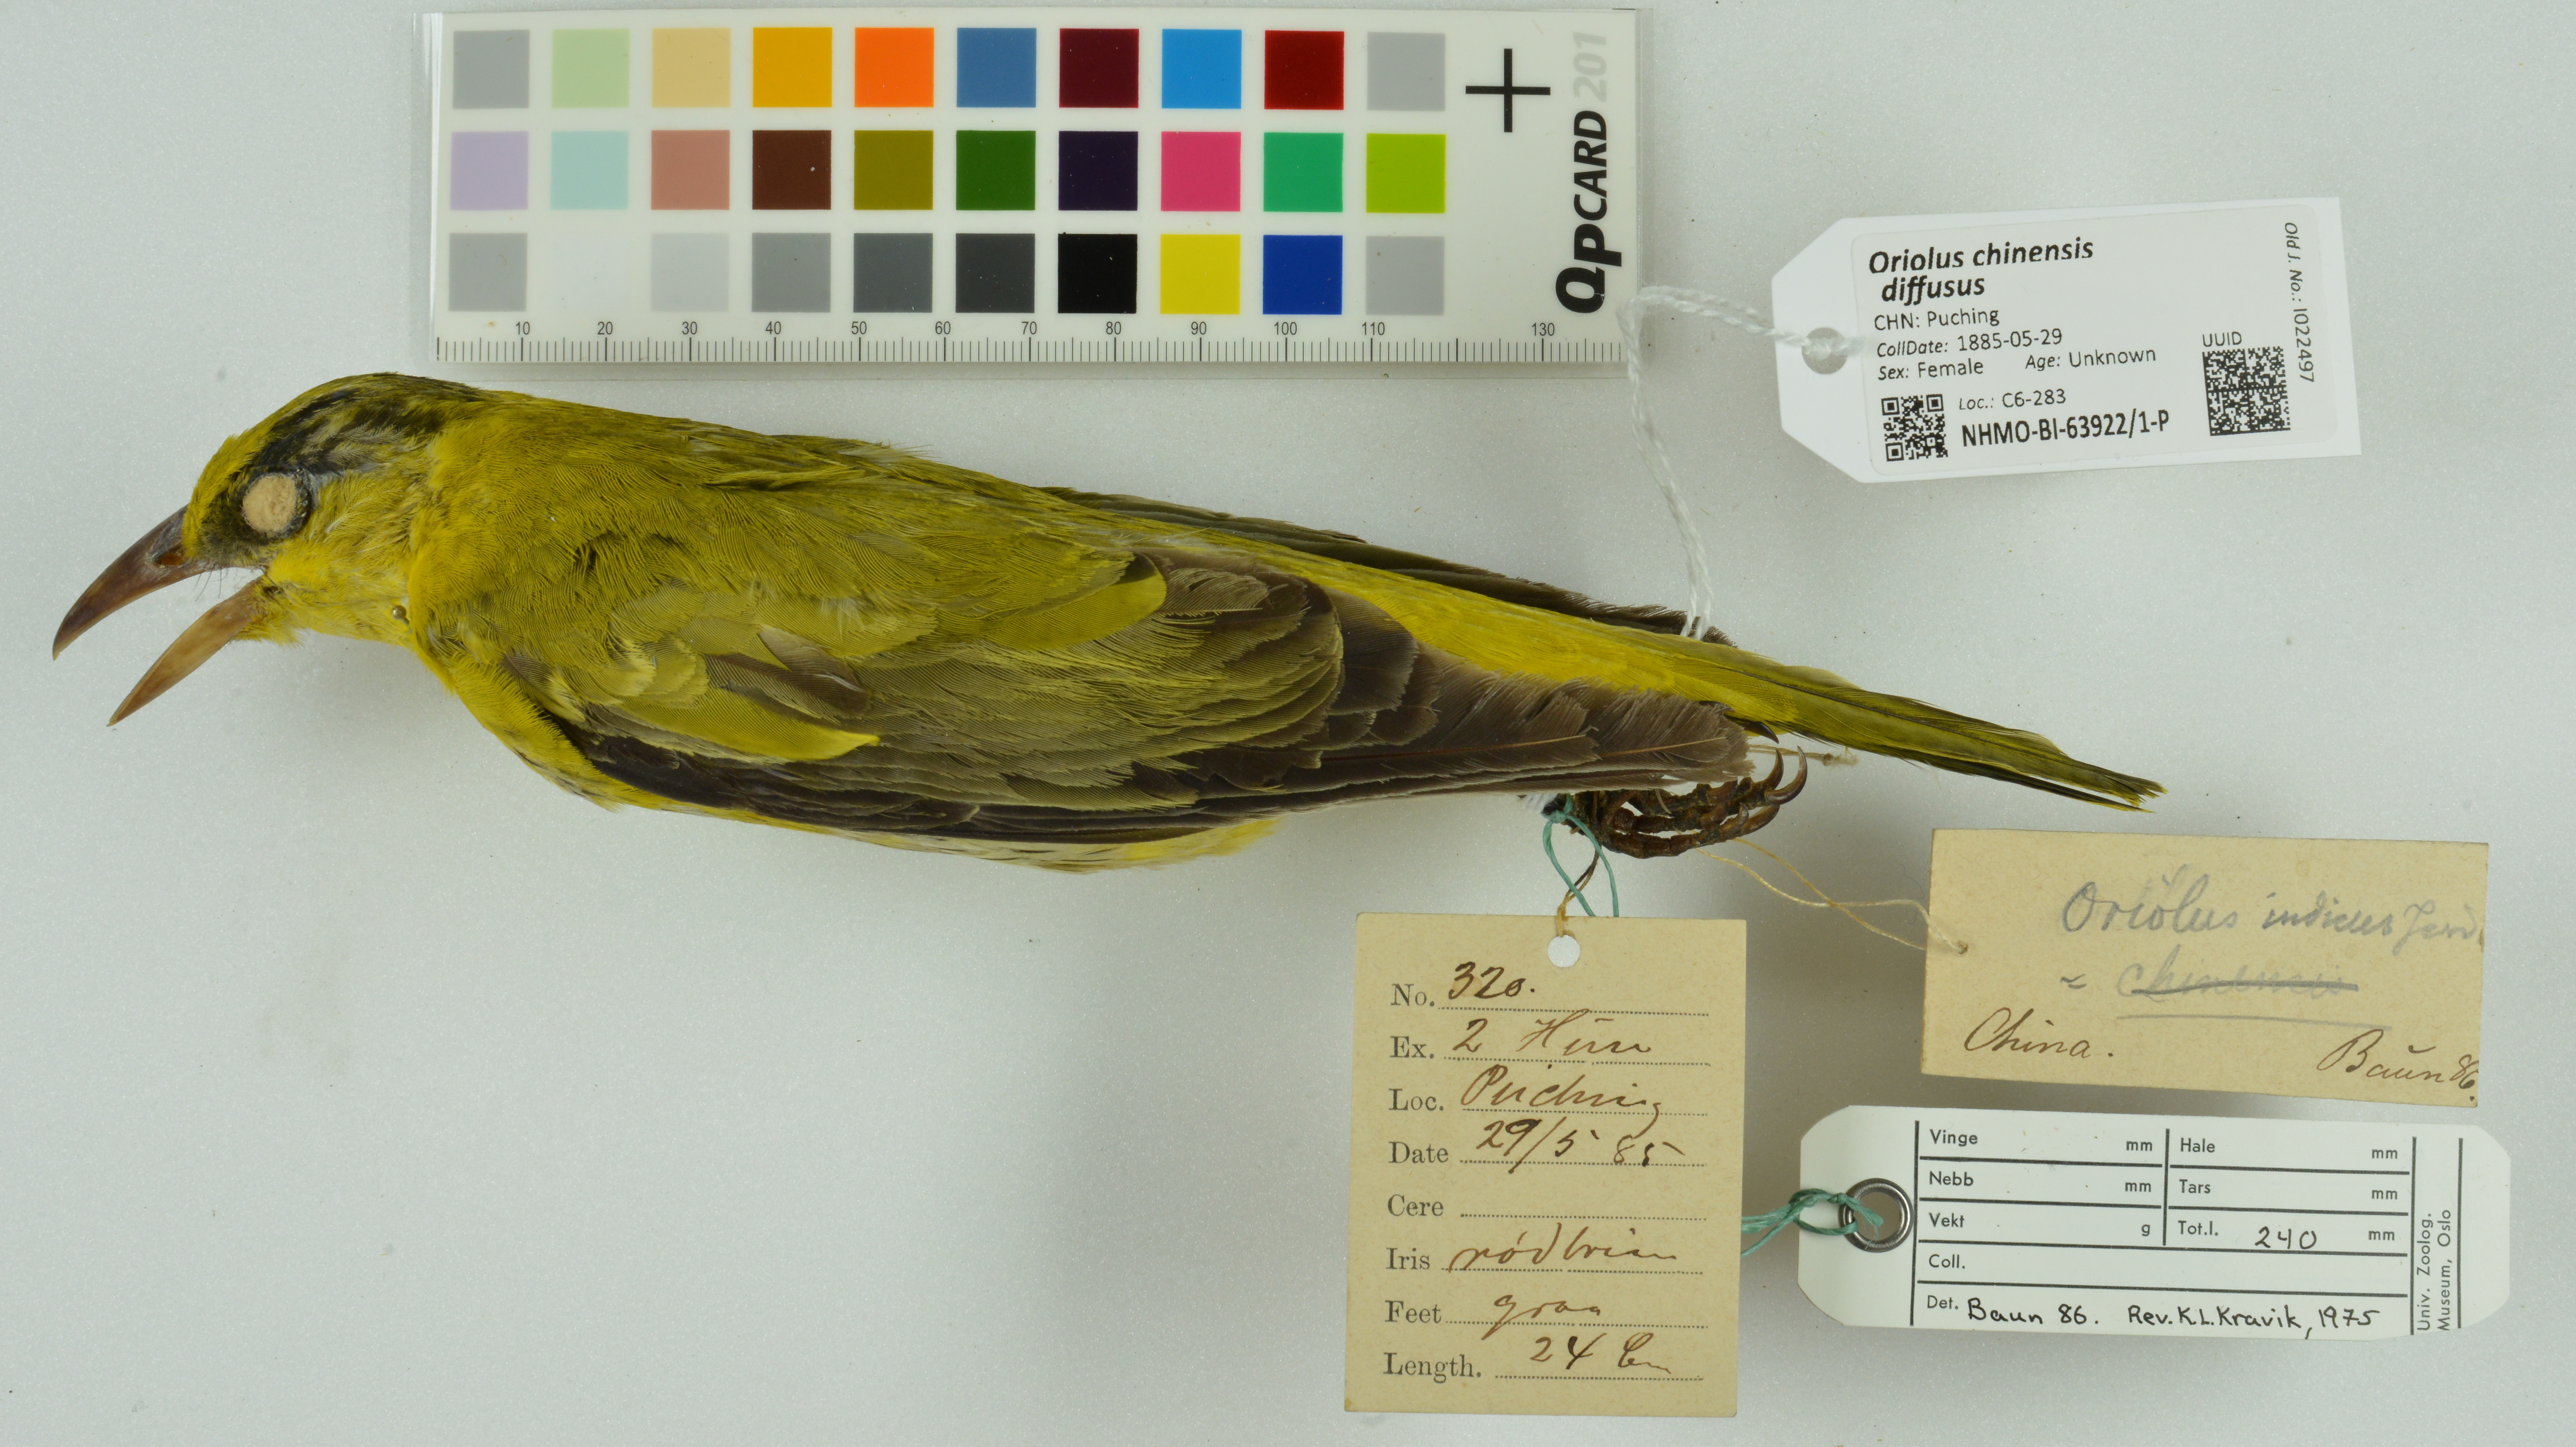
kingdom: Animalia
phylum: Chordata
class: Aves
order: Passeriformes
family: Oriolidae
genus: Oriolus
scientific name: Oriolus chinensis
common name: Black-naped oriole
